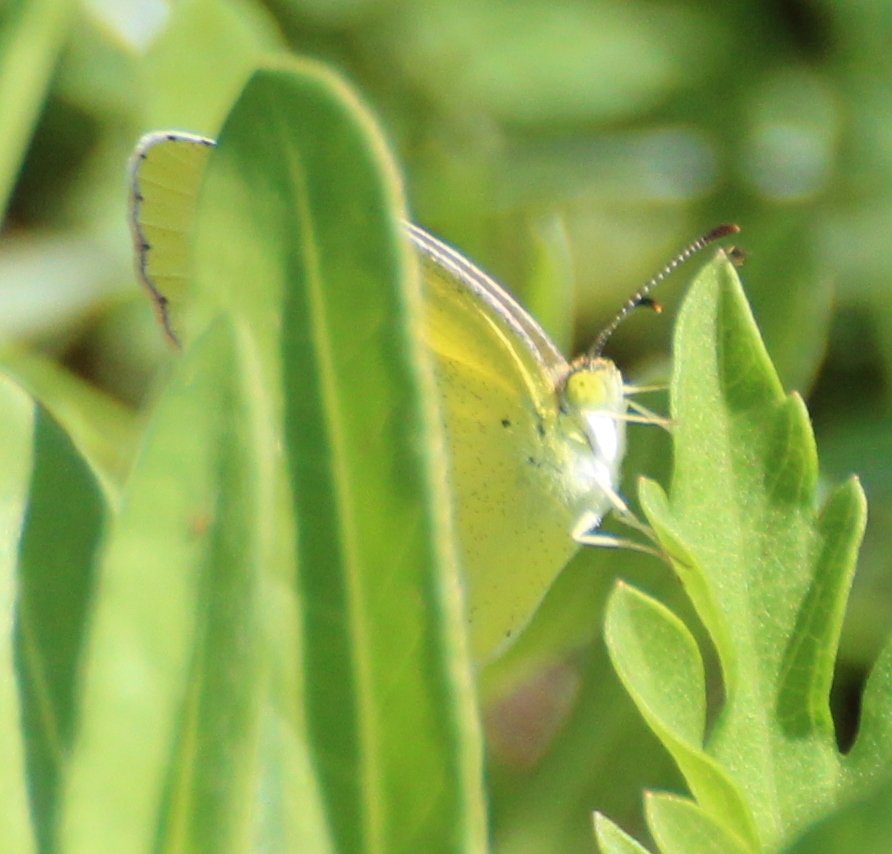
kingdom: Animalia
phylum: Arthropoda
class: Insecta
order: Lepidoptera
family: Pieridae
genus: Pyrisitia
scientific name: Pyrisitia lisa
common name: Little Yellow
